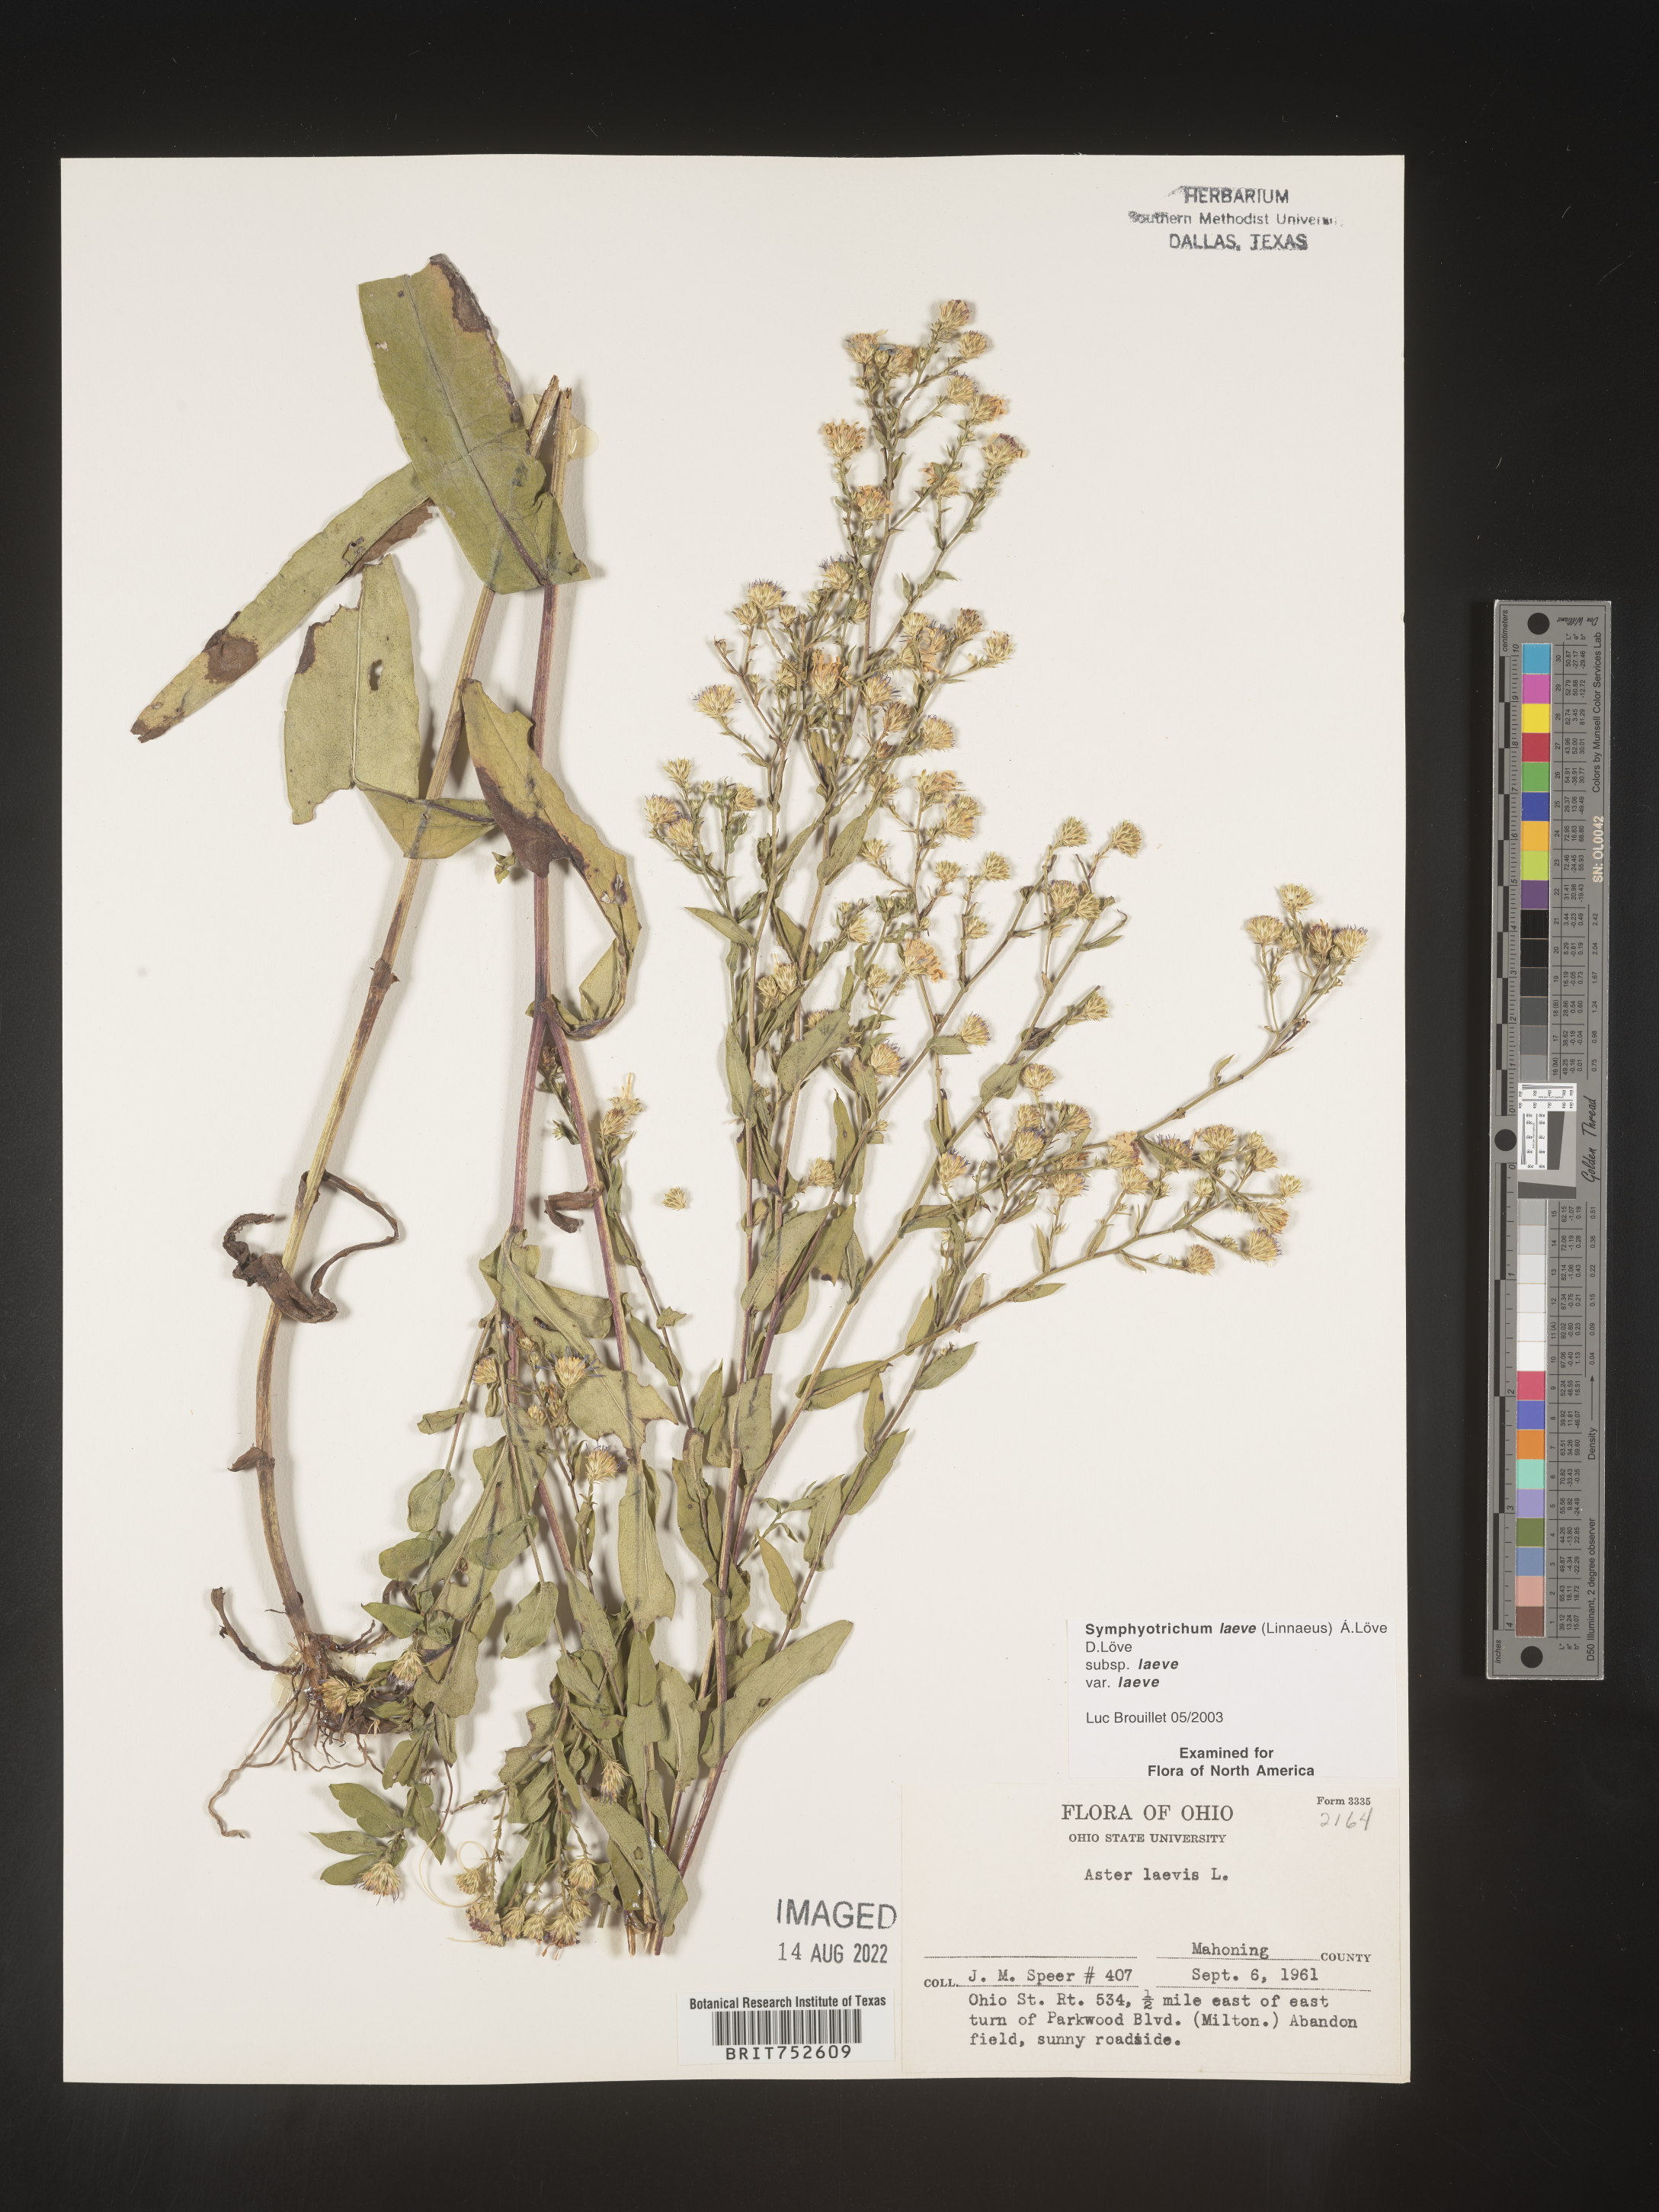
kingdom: Plantae
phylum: Tracheophyta
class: Magnoliopsida
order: Asterales
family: Asteraceae
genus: Symphyotrichum
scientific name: Symphyotrichum laeve
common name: Glaucous aster
